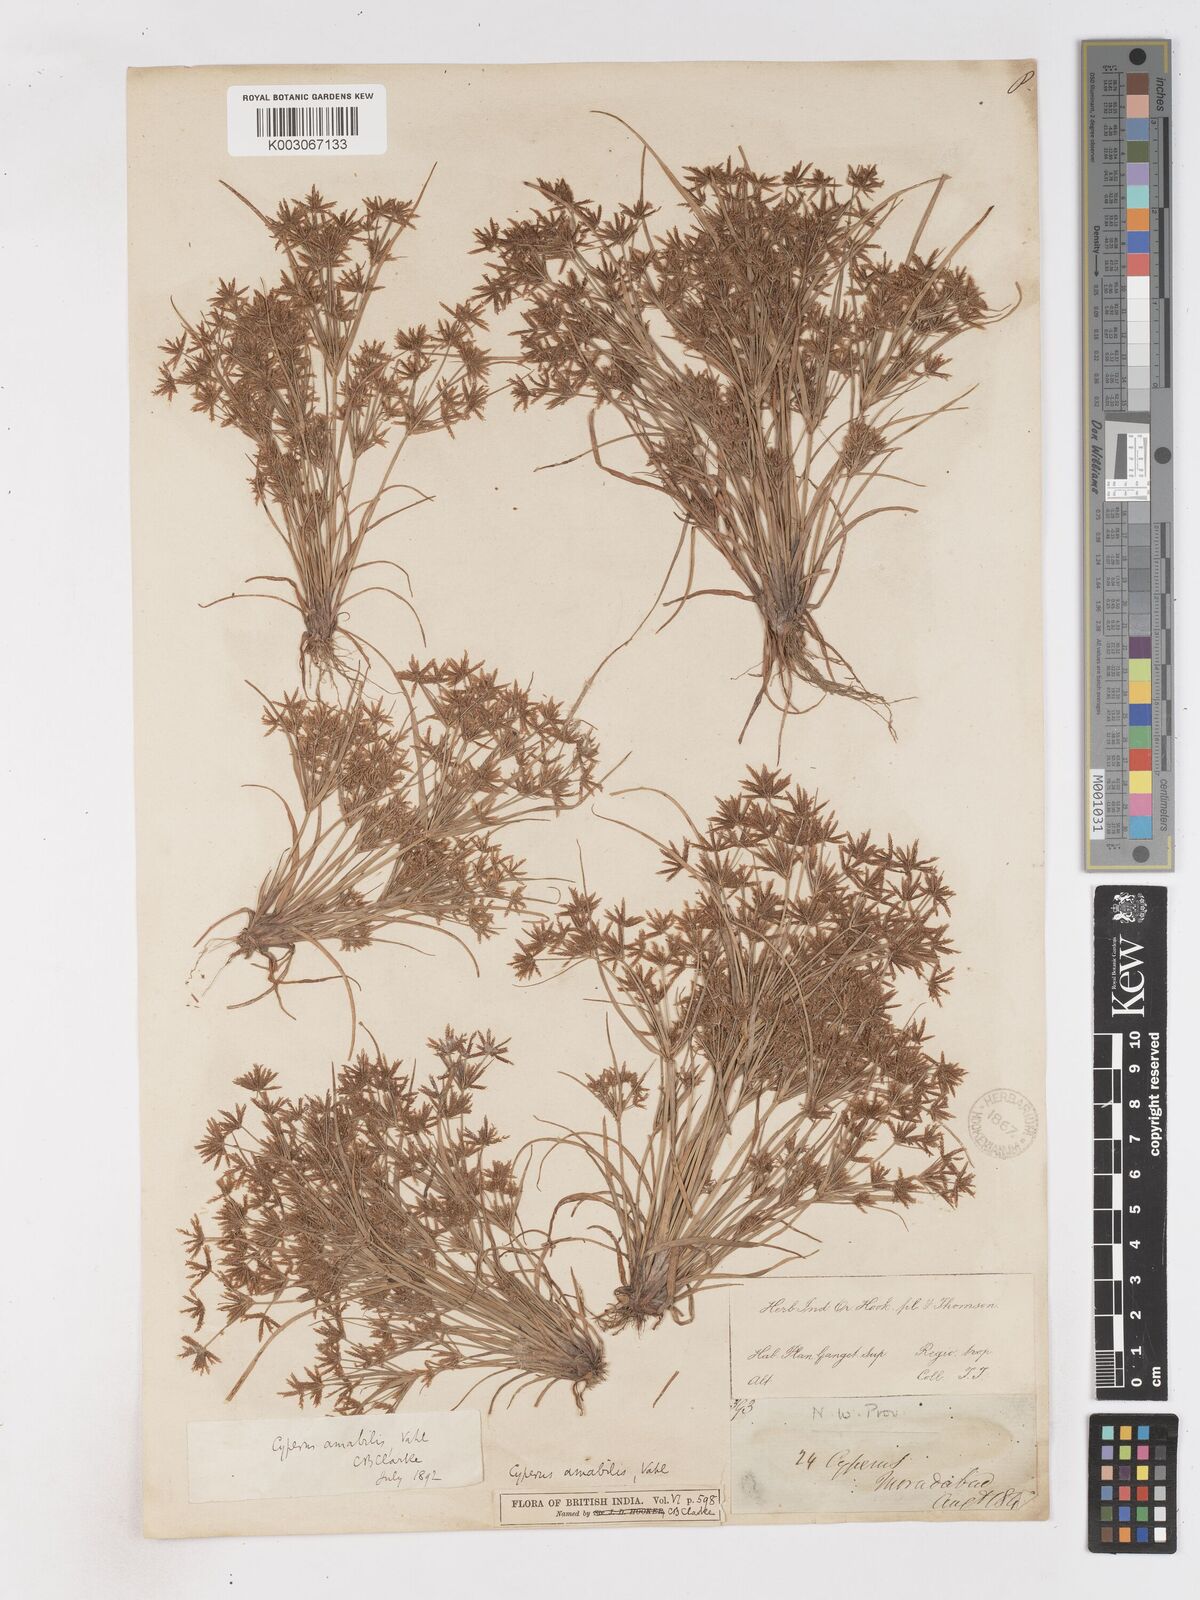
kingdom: Plantae
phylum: Tracheophyta
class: Liliopsida
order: Poales
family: Cyperaceae
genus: Cyperus
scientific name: Cyperus amabilis
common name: Foothill flat sedge
